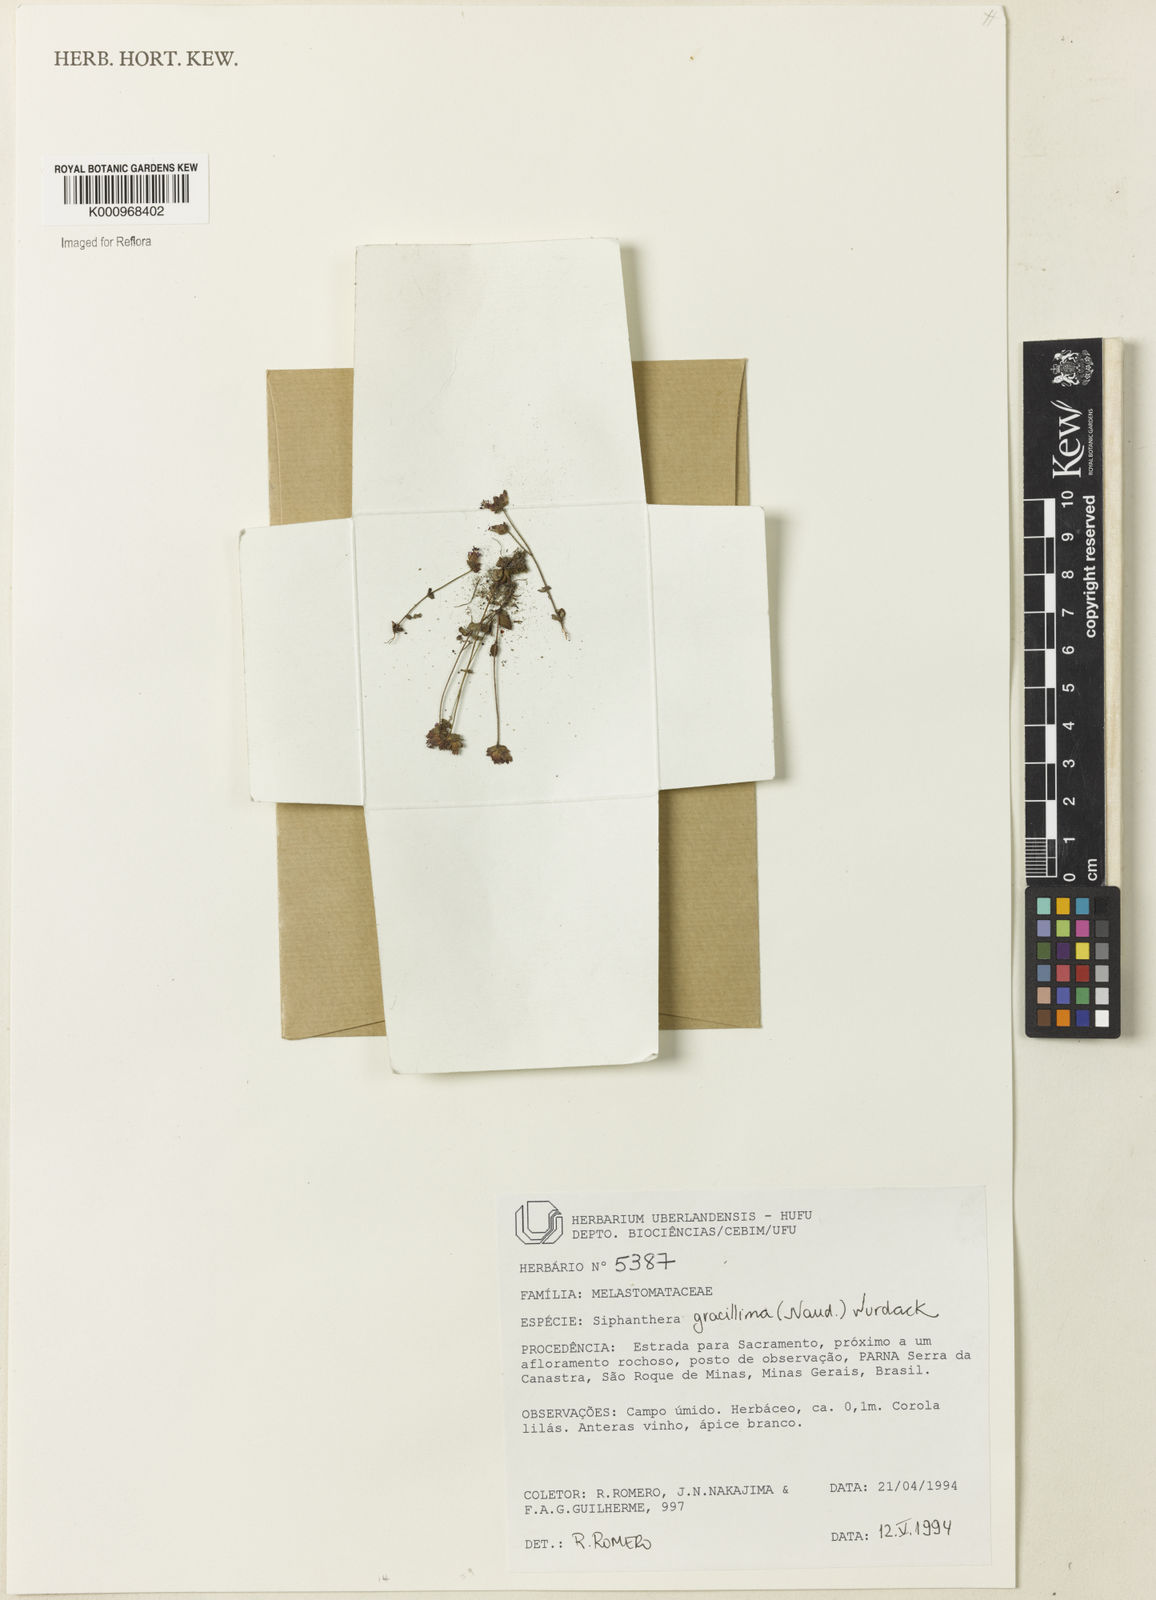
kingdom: Plantae
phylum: Tracheophyta
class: Magnoliopsida
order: Myrtales
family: Melastomataceae
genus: Siphanthera
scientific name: Siphanthera gracillima
